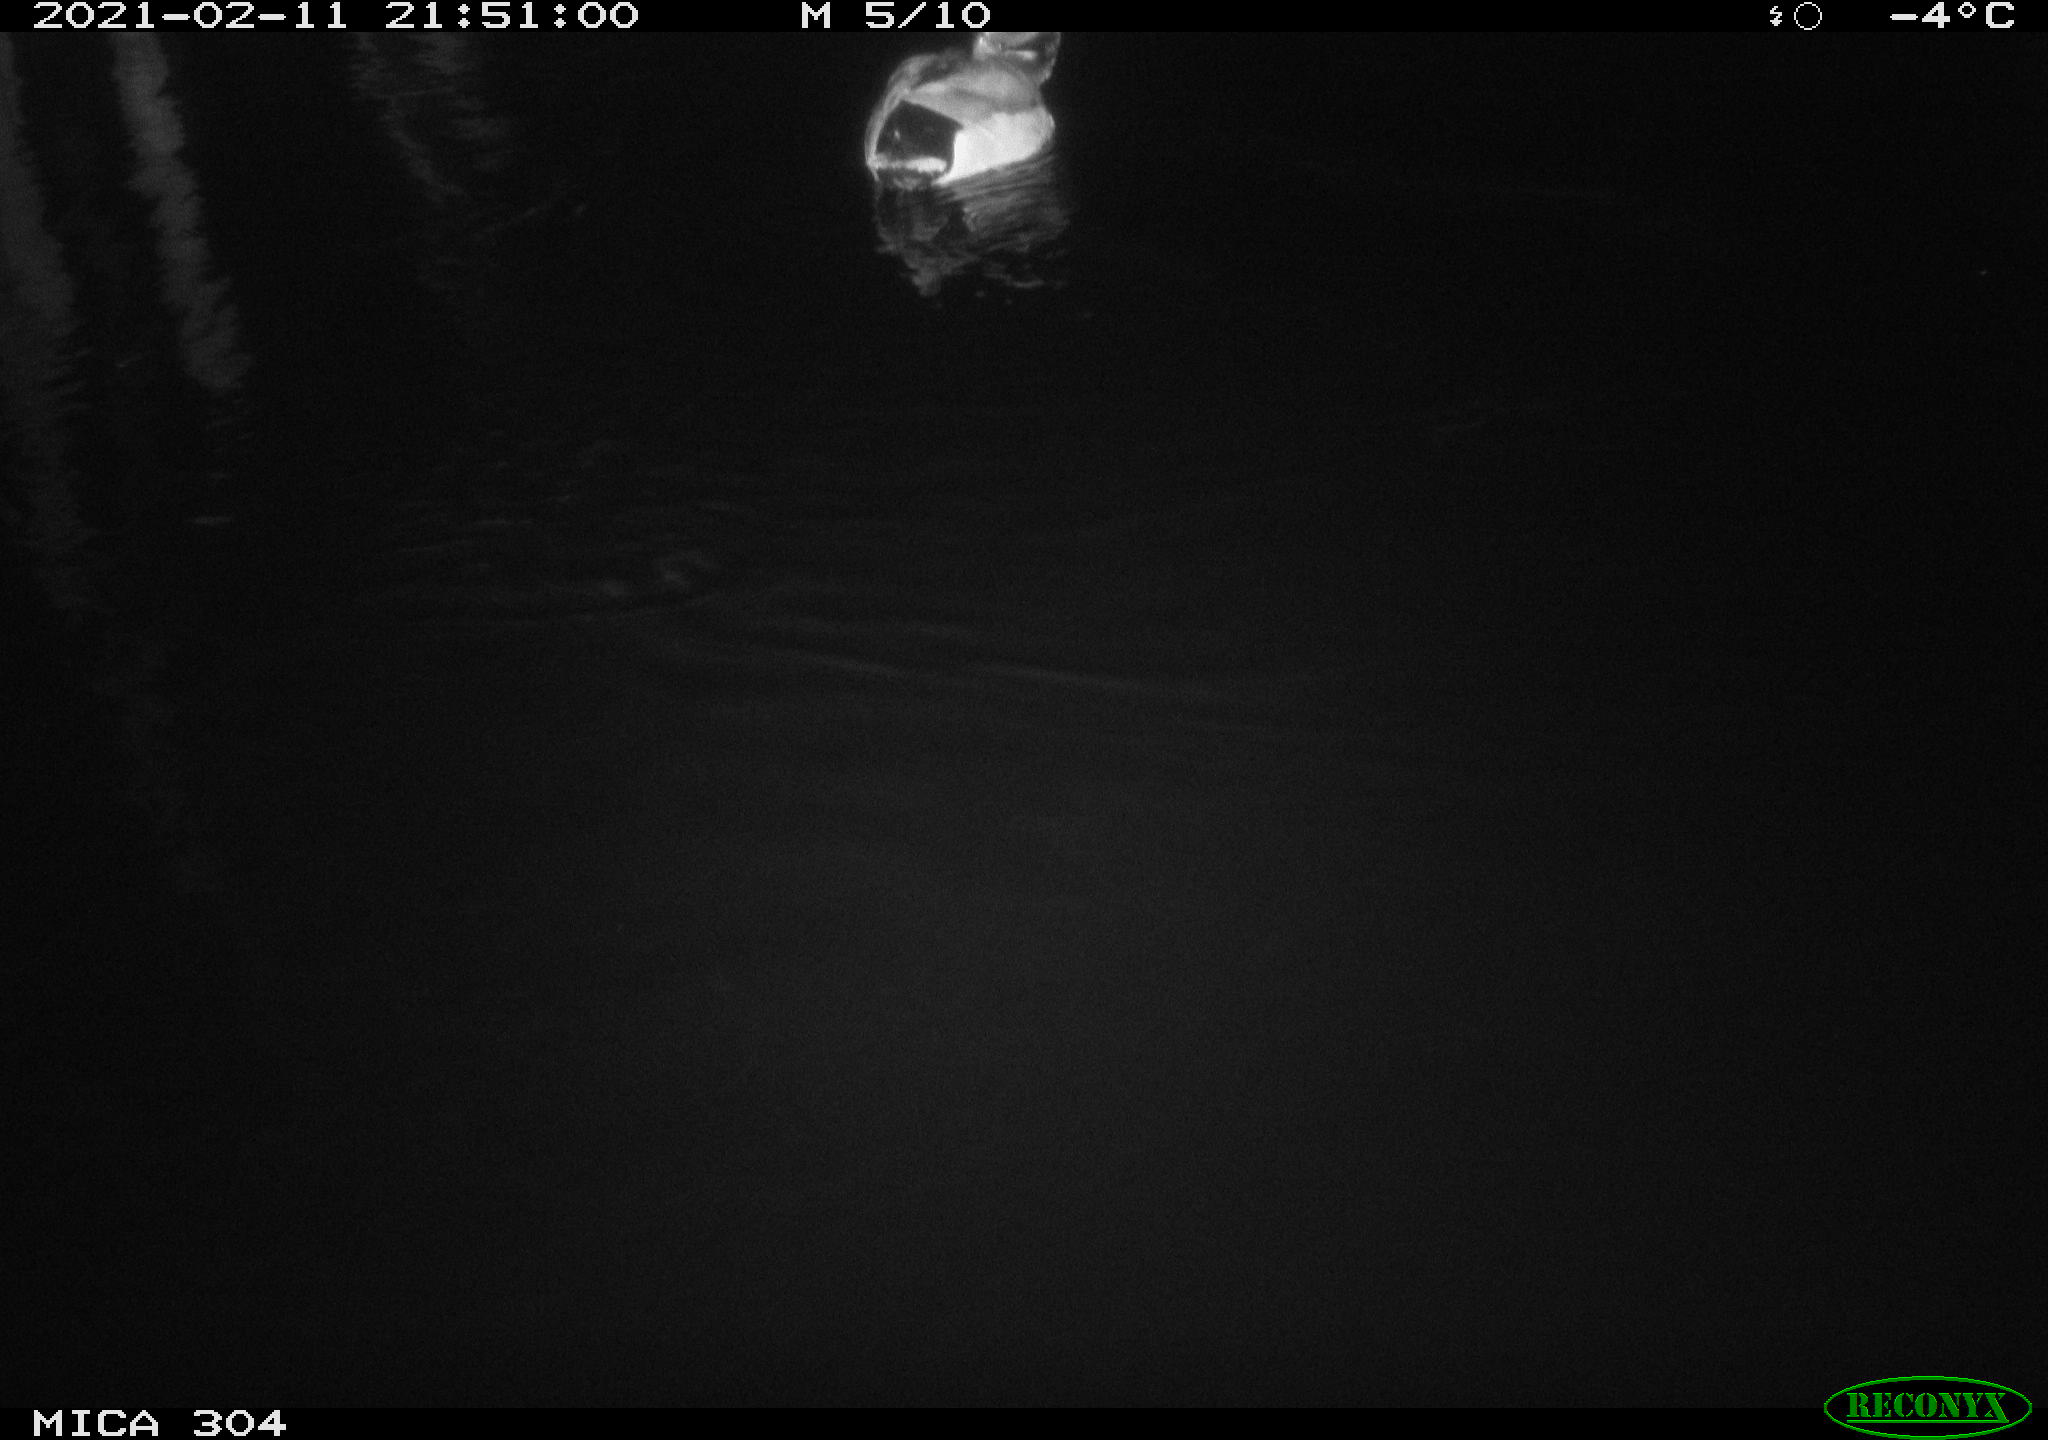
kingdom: Animalia
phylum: Chordata
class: Aves
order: Anseriformes
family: Anatidae
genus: Anas
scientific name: Anas platyrhynchos
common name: Mallard
